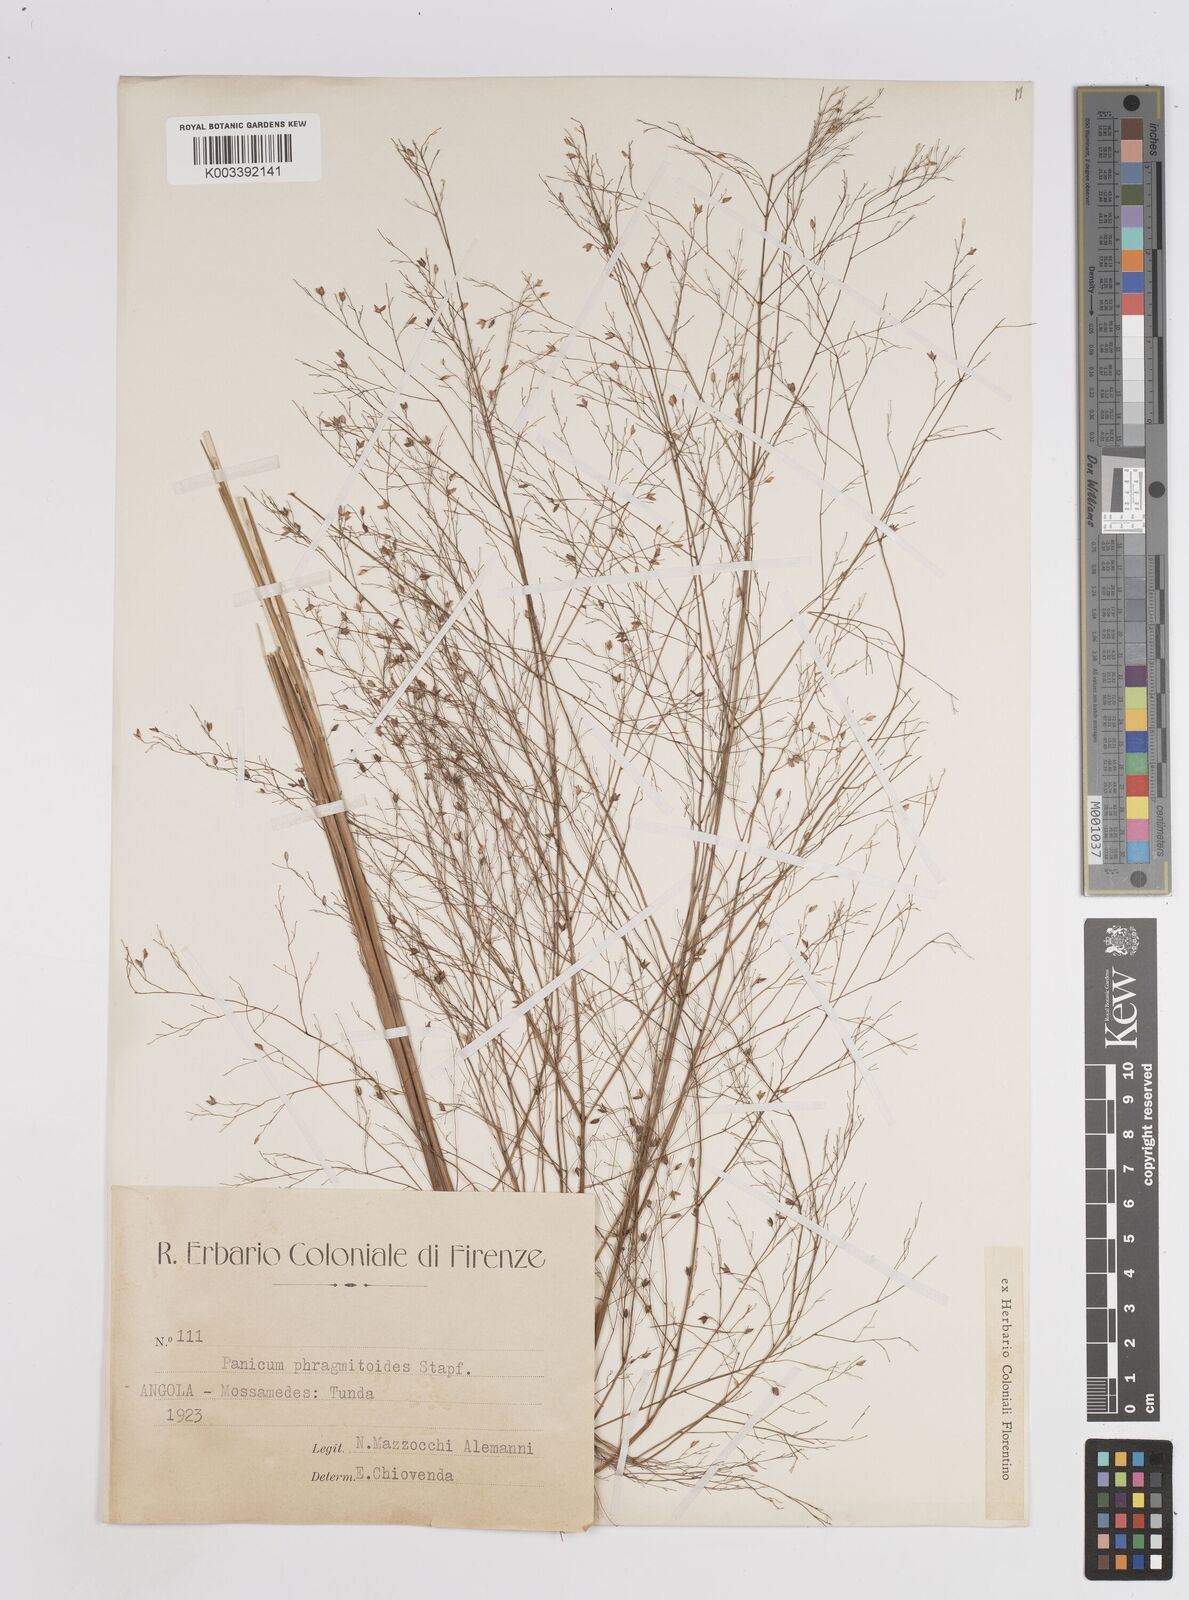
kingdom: Plantae
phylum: Tracheophyta
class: Liliopsida
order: Poales
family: Poaceae
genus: Panicum
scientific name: Panicum phragmitoides
